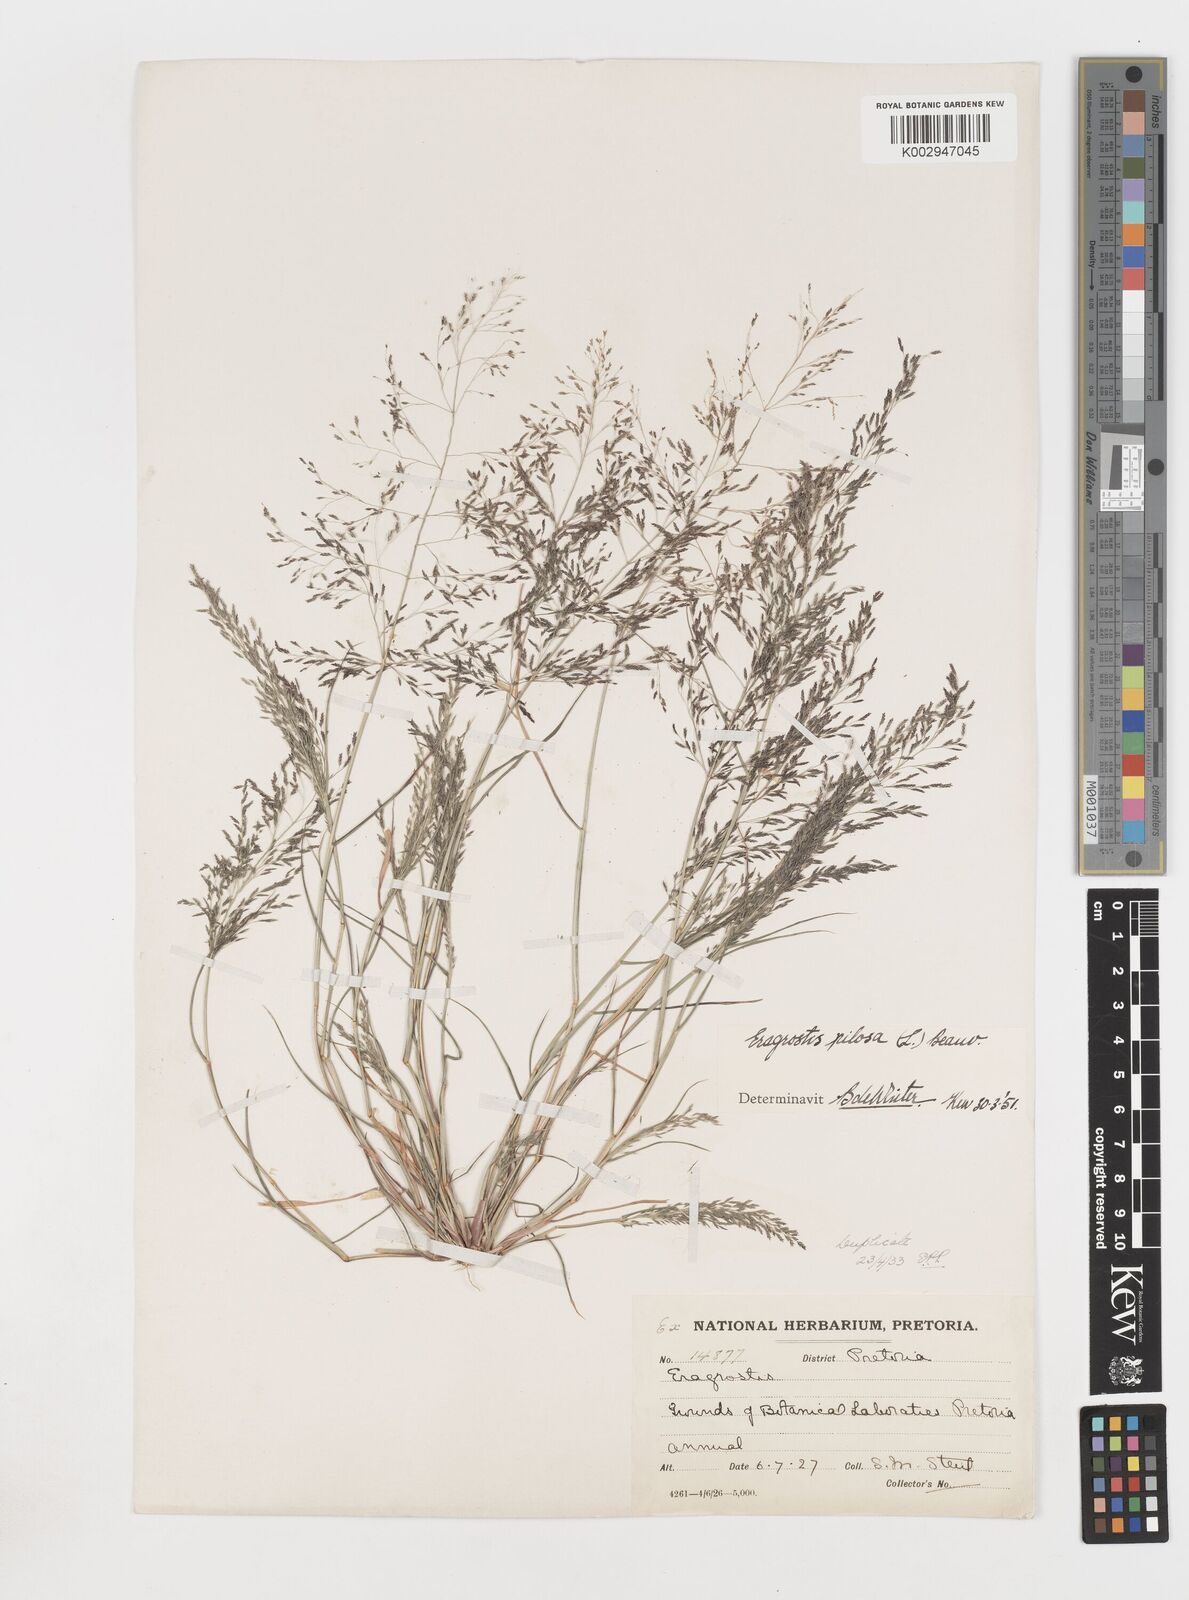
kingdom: Plantae
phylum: Tracheophyta
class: Liliopsida
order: Poales
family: Poaceae
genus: Eragrostis
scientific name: Eragrostis pilosa
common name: Indian lovegrass
